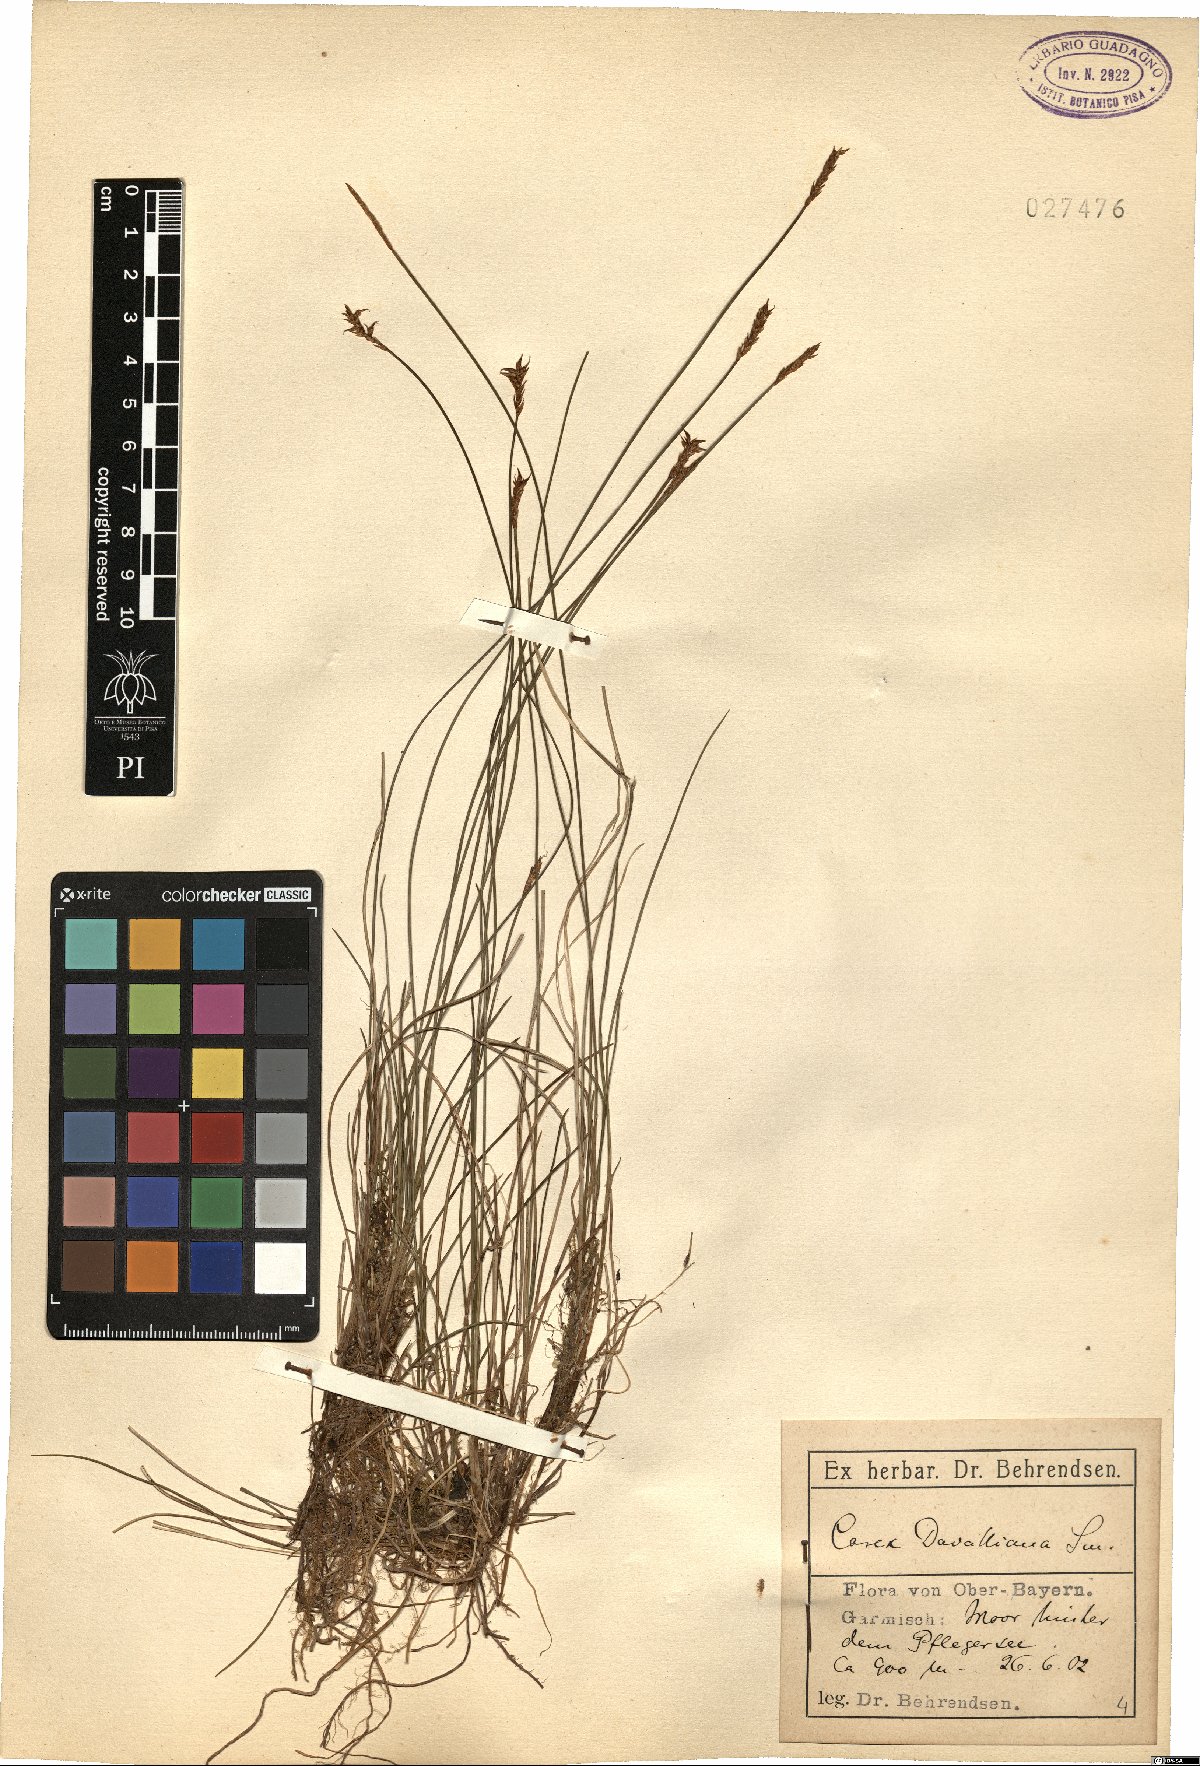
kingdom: Plantae
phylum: Tracheophyta
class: Liliopsida
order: Poales
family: Cyperaceae
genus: Carex
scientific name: Carex davalliana
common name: Davall's sedge
